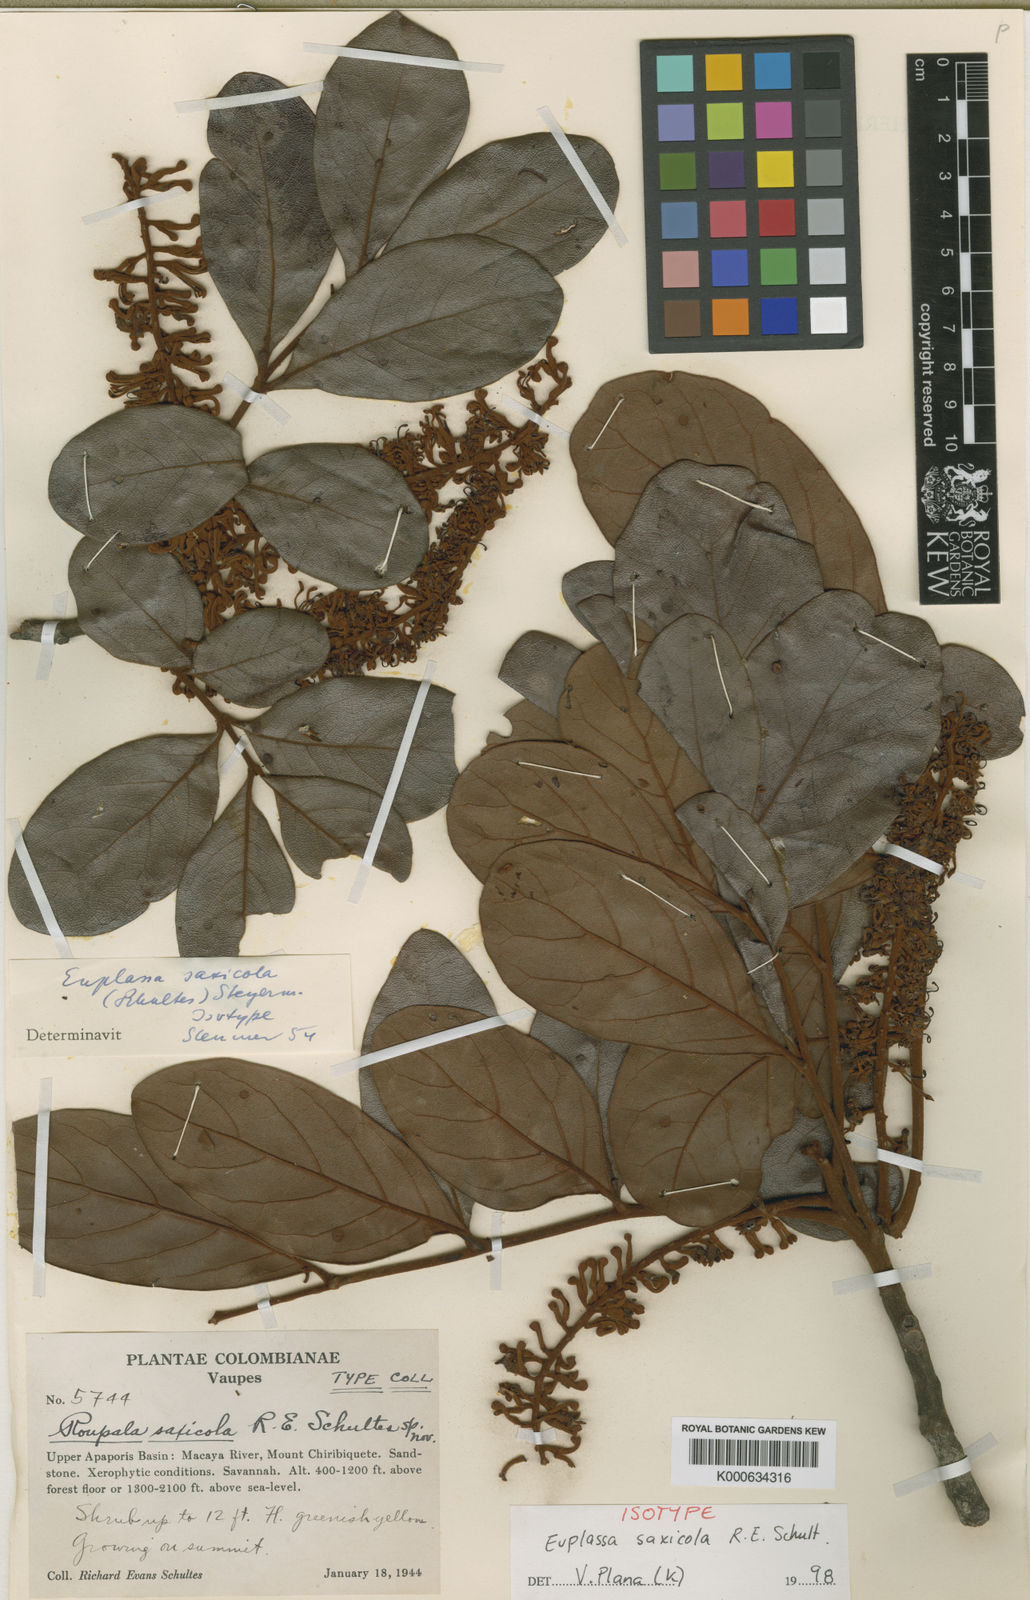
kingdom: Plantae
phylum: Tracheophyta
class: Magnoliopsida
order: Proteales
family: Proteaceae
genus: Euplassa
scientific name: Euplassa saxicola
